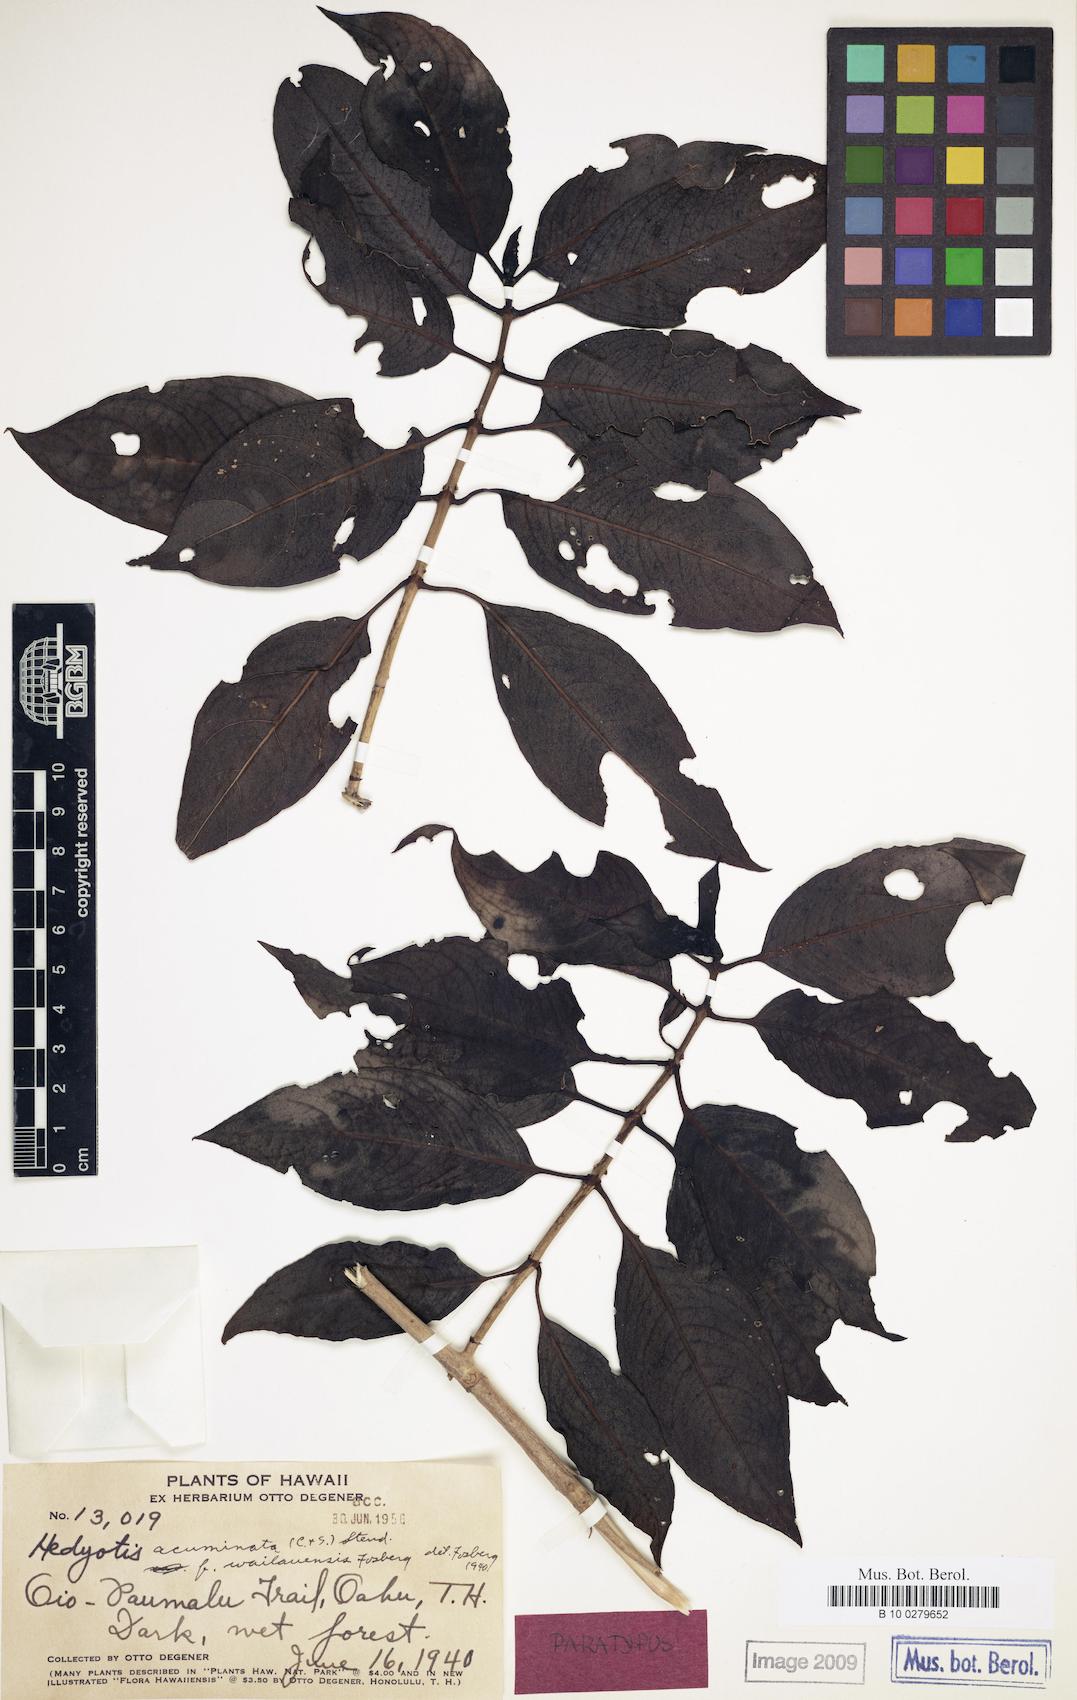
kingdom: Plantae
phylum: Tracheophyta
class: Magnoliopsida
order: Gentianales
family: Rubiaceae
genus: Kadua
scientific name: Kadua acuminata
